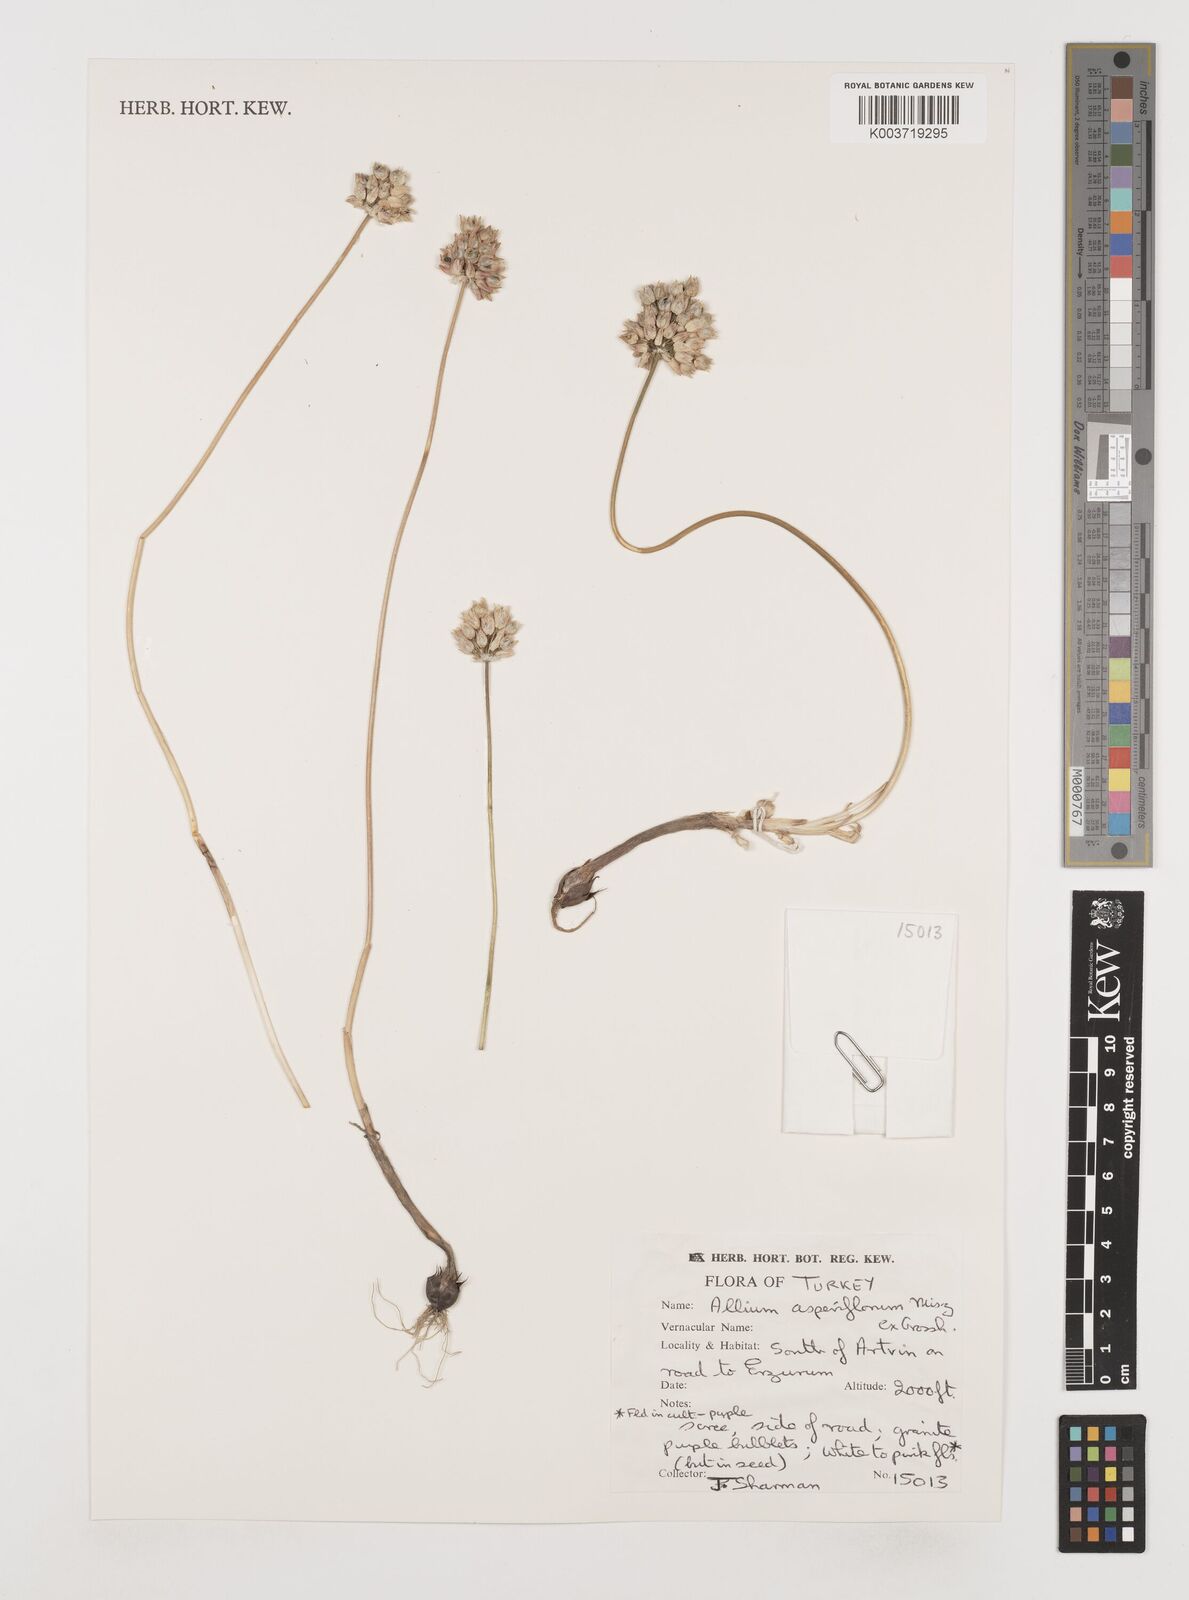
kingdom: Plantae
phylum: Tracheophyta
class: Liliopsida
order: Asparagales
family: Amaryllidaceae
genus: Allium
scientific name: Allium asperiflorum
